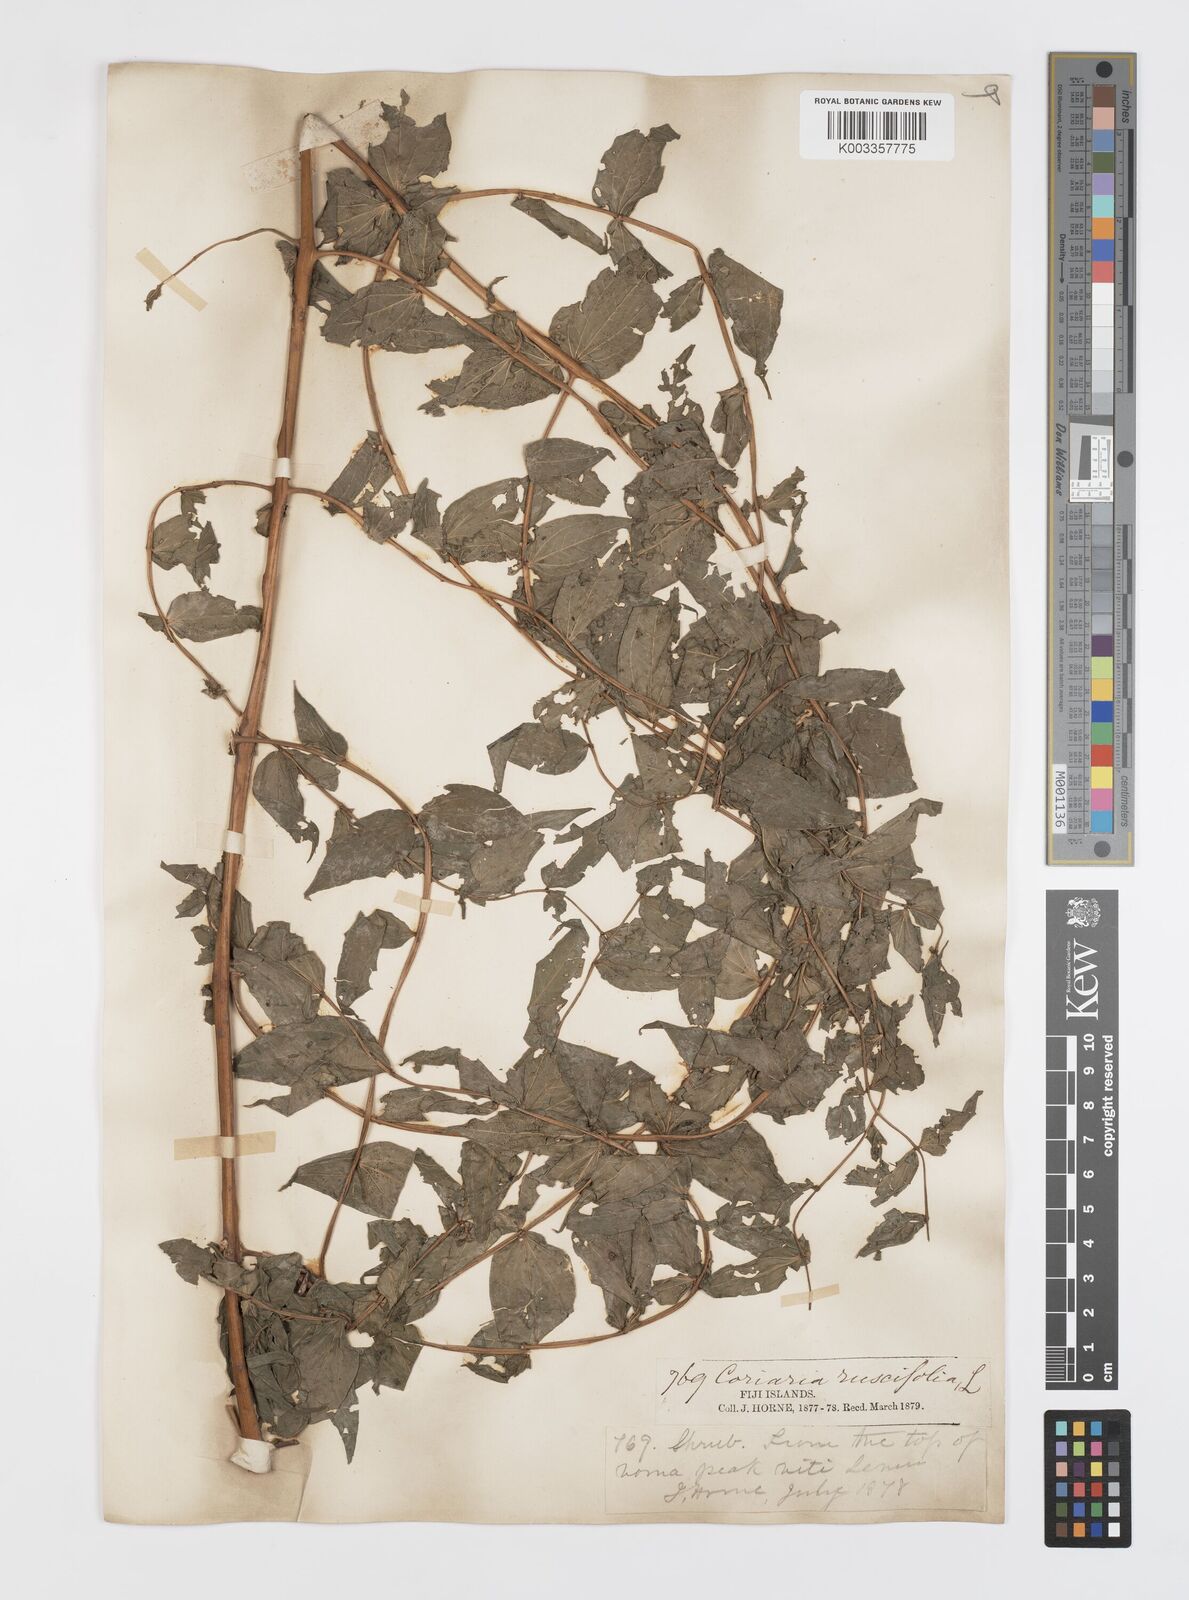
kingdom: Plantae
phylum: Tracheophyta
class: Magnoliopsida
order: Cucurbitales
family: Coriariaceae
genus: Coriaria
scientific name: Coriaria ruscifolia
